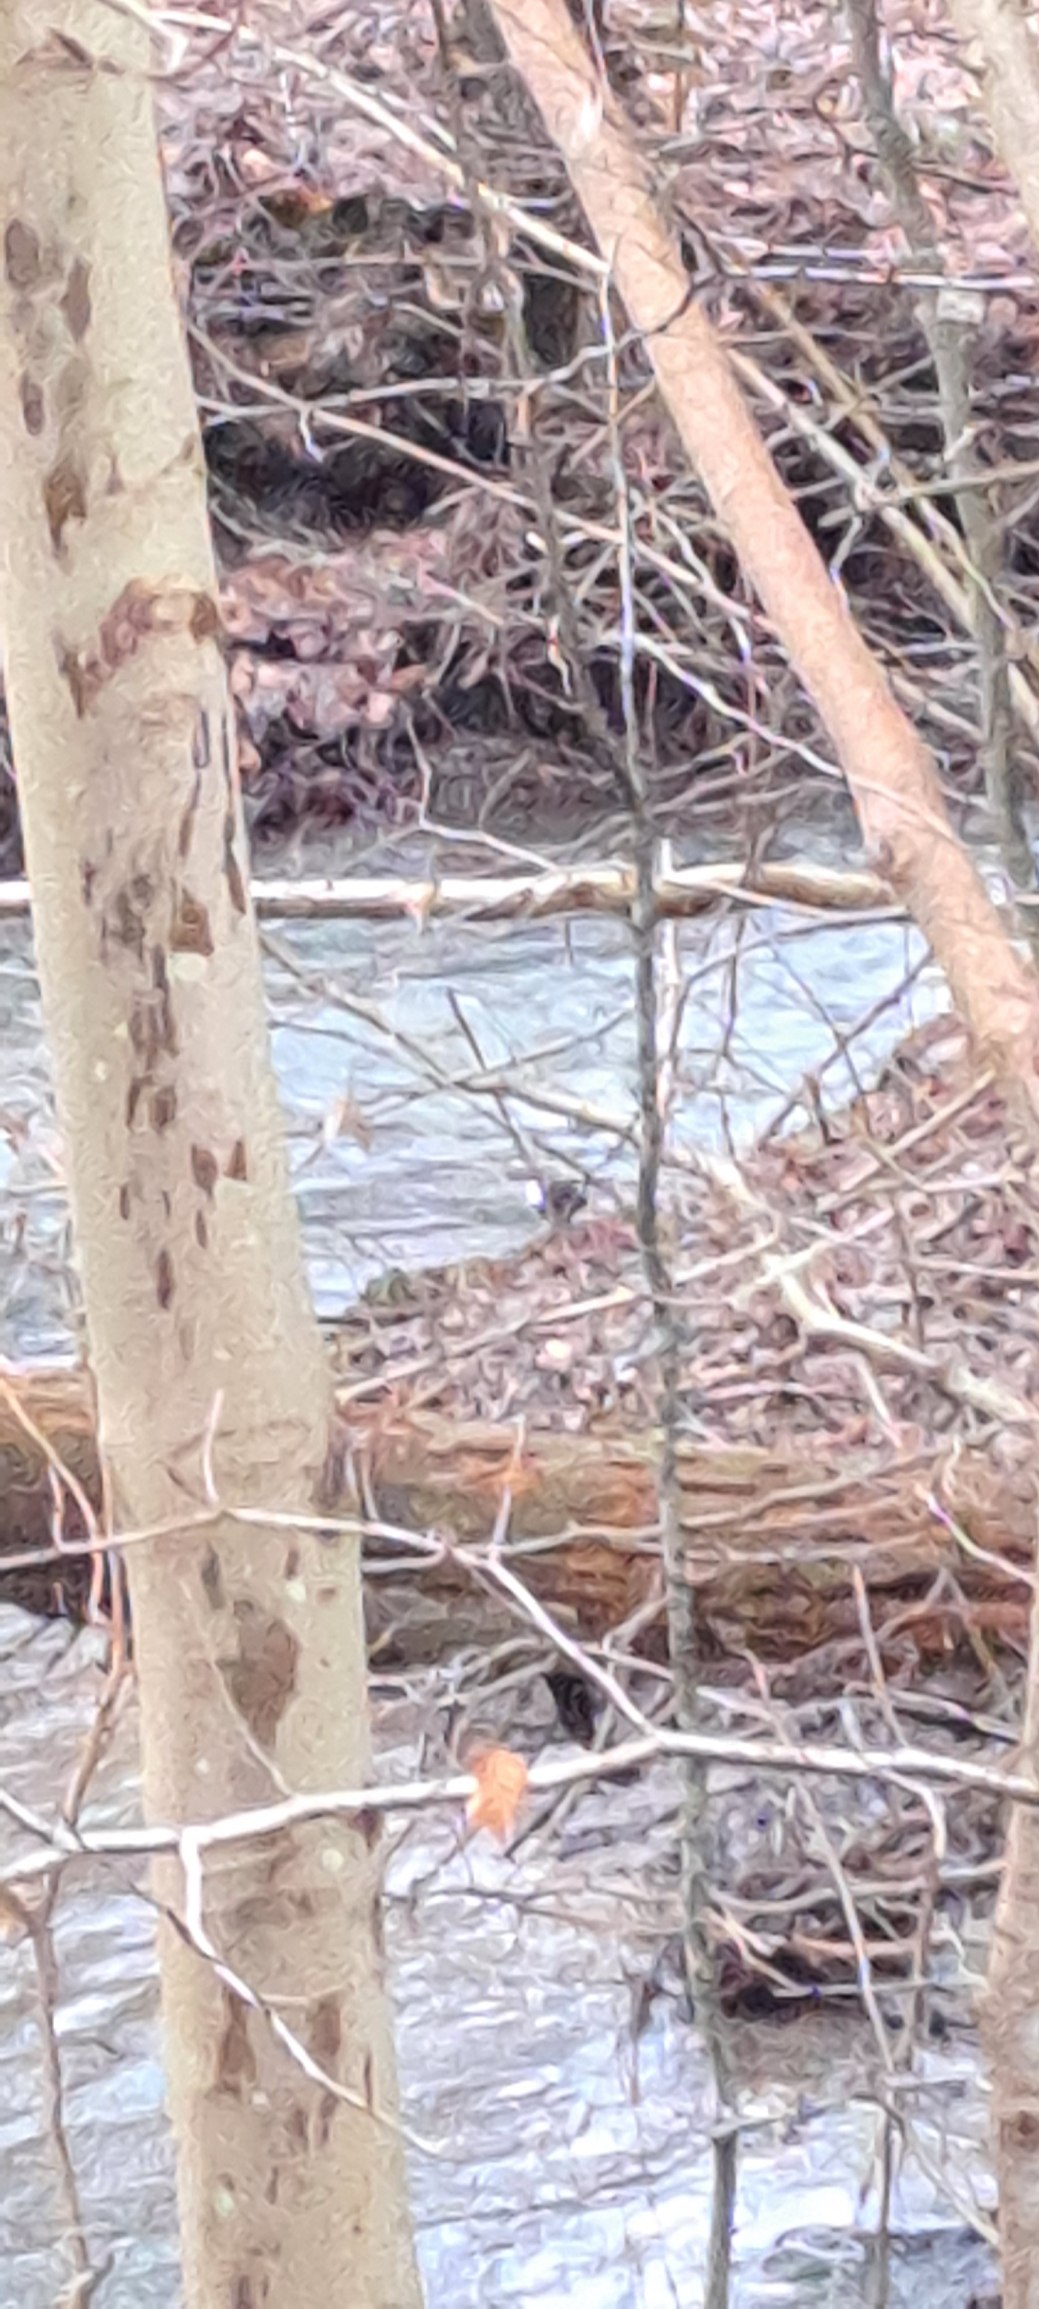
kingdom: Animalia
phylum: Chordata
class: Aves
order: Passeriformes
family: Cinclidae
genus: Cinclus
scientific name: Cinclus cinclus
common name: Vandstær
